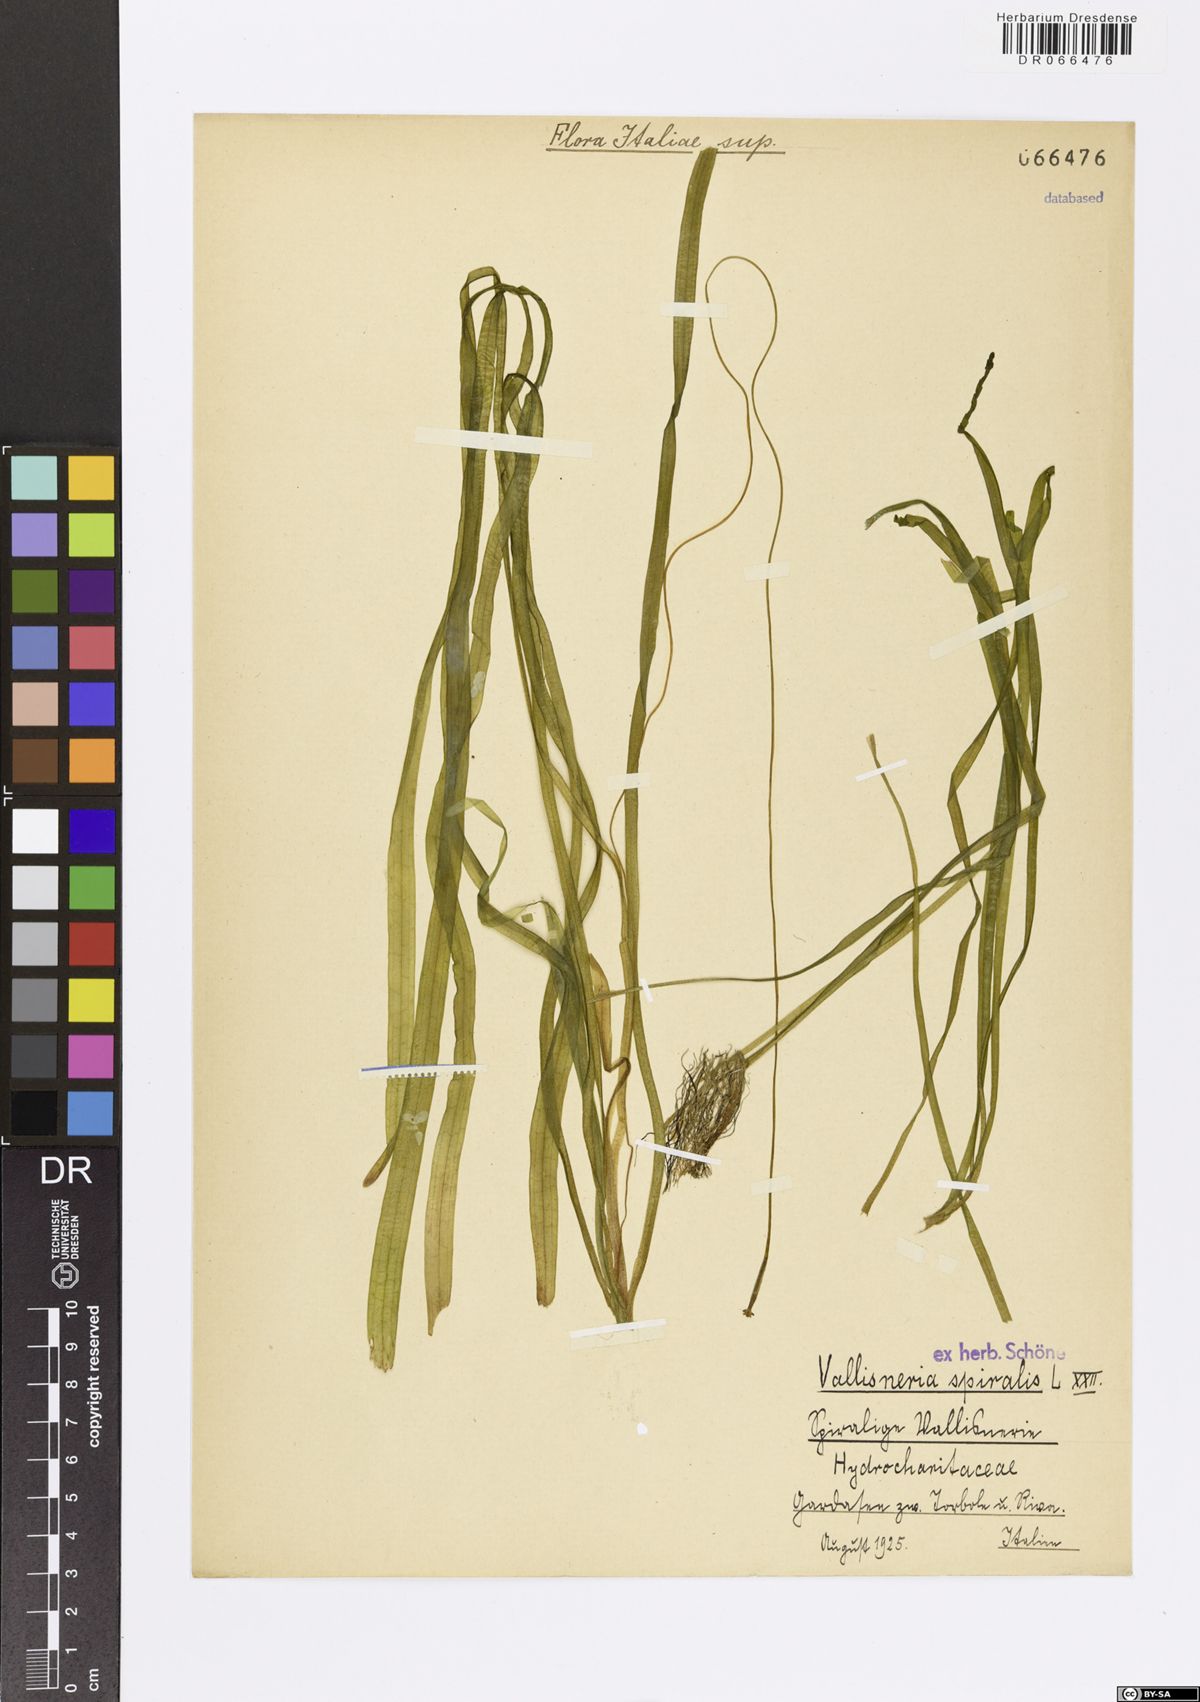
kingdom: Plantae
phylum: Tracheophyta
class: Liliopsida
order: Alismatales
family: Hydrocharitaceae
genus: Vallisneria
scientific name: Vallisneria spiralis
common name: Tapegrass
